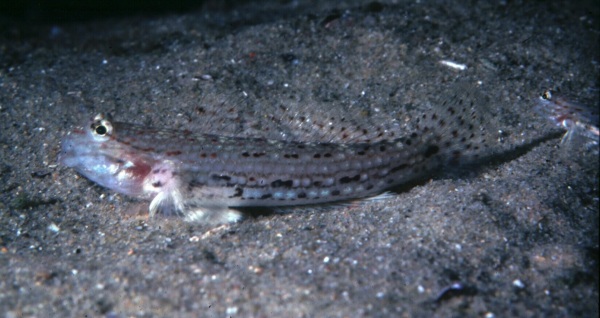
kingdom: Animalia
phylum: Chordata
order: Perciformes
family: Gobiidae
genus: Istigobius
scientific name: Istigobius decoratus
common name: Decorated goby
